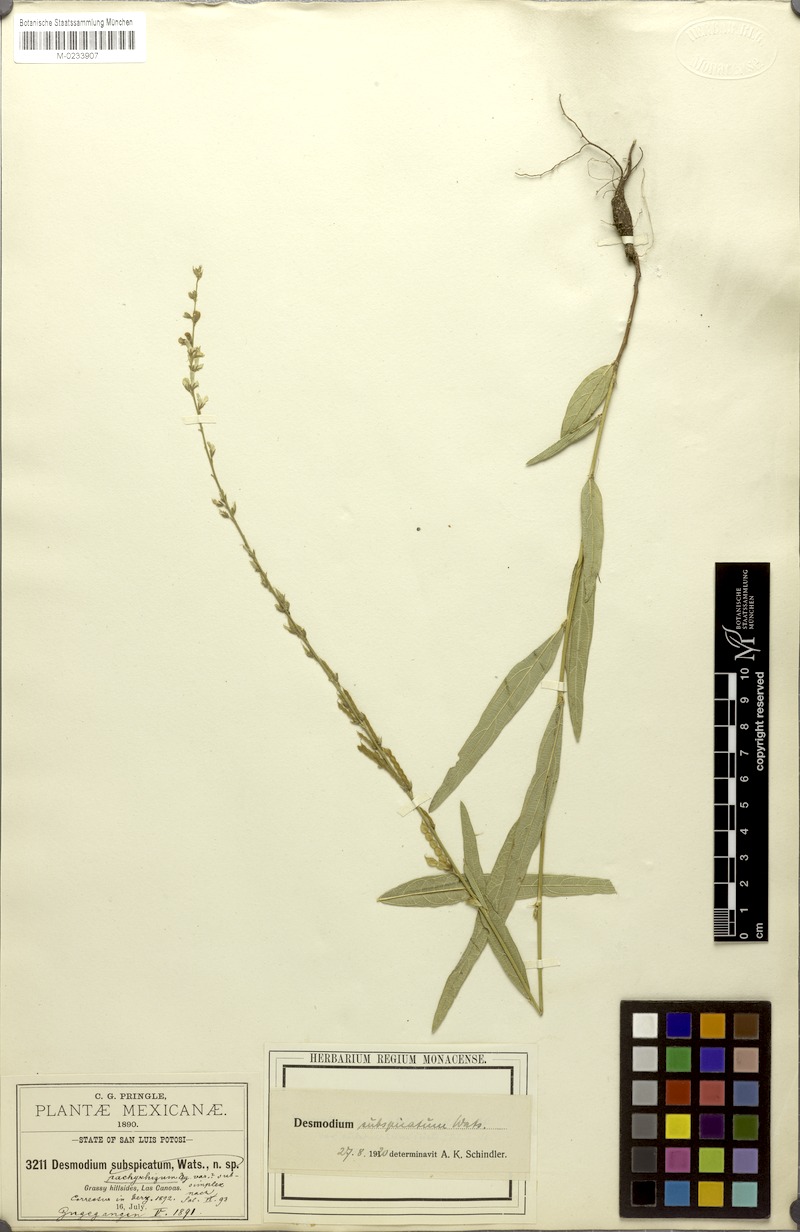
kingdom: Plantae
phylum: Tracheophyta
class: Magnoliopsida
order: Fabales
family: Fabaceae
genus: Desmodium
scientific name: Desmodium angustifolium
